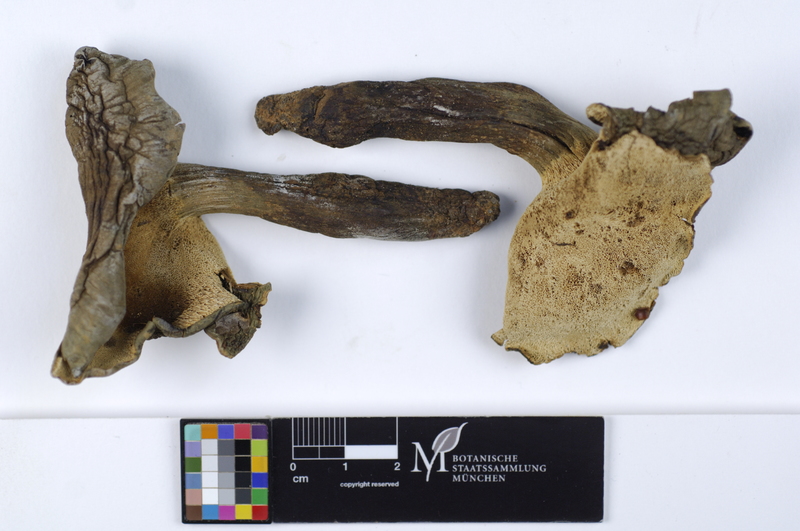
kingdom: Fungi
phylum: Basidiomycota
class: Agaricomycetes
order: Thelephorales
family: Bankeraceae
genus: Boletopsis
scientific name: Boletopsis leucomelaena
